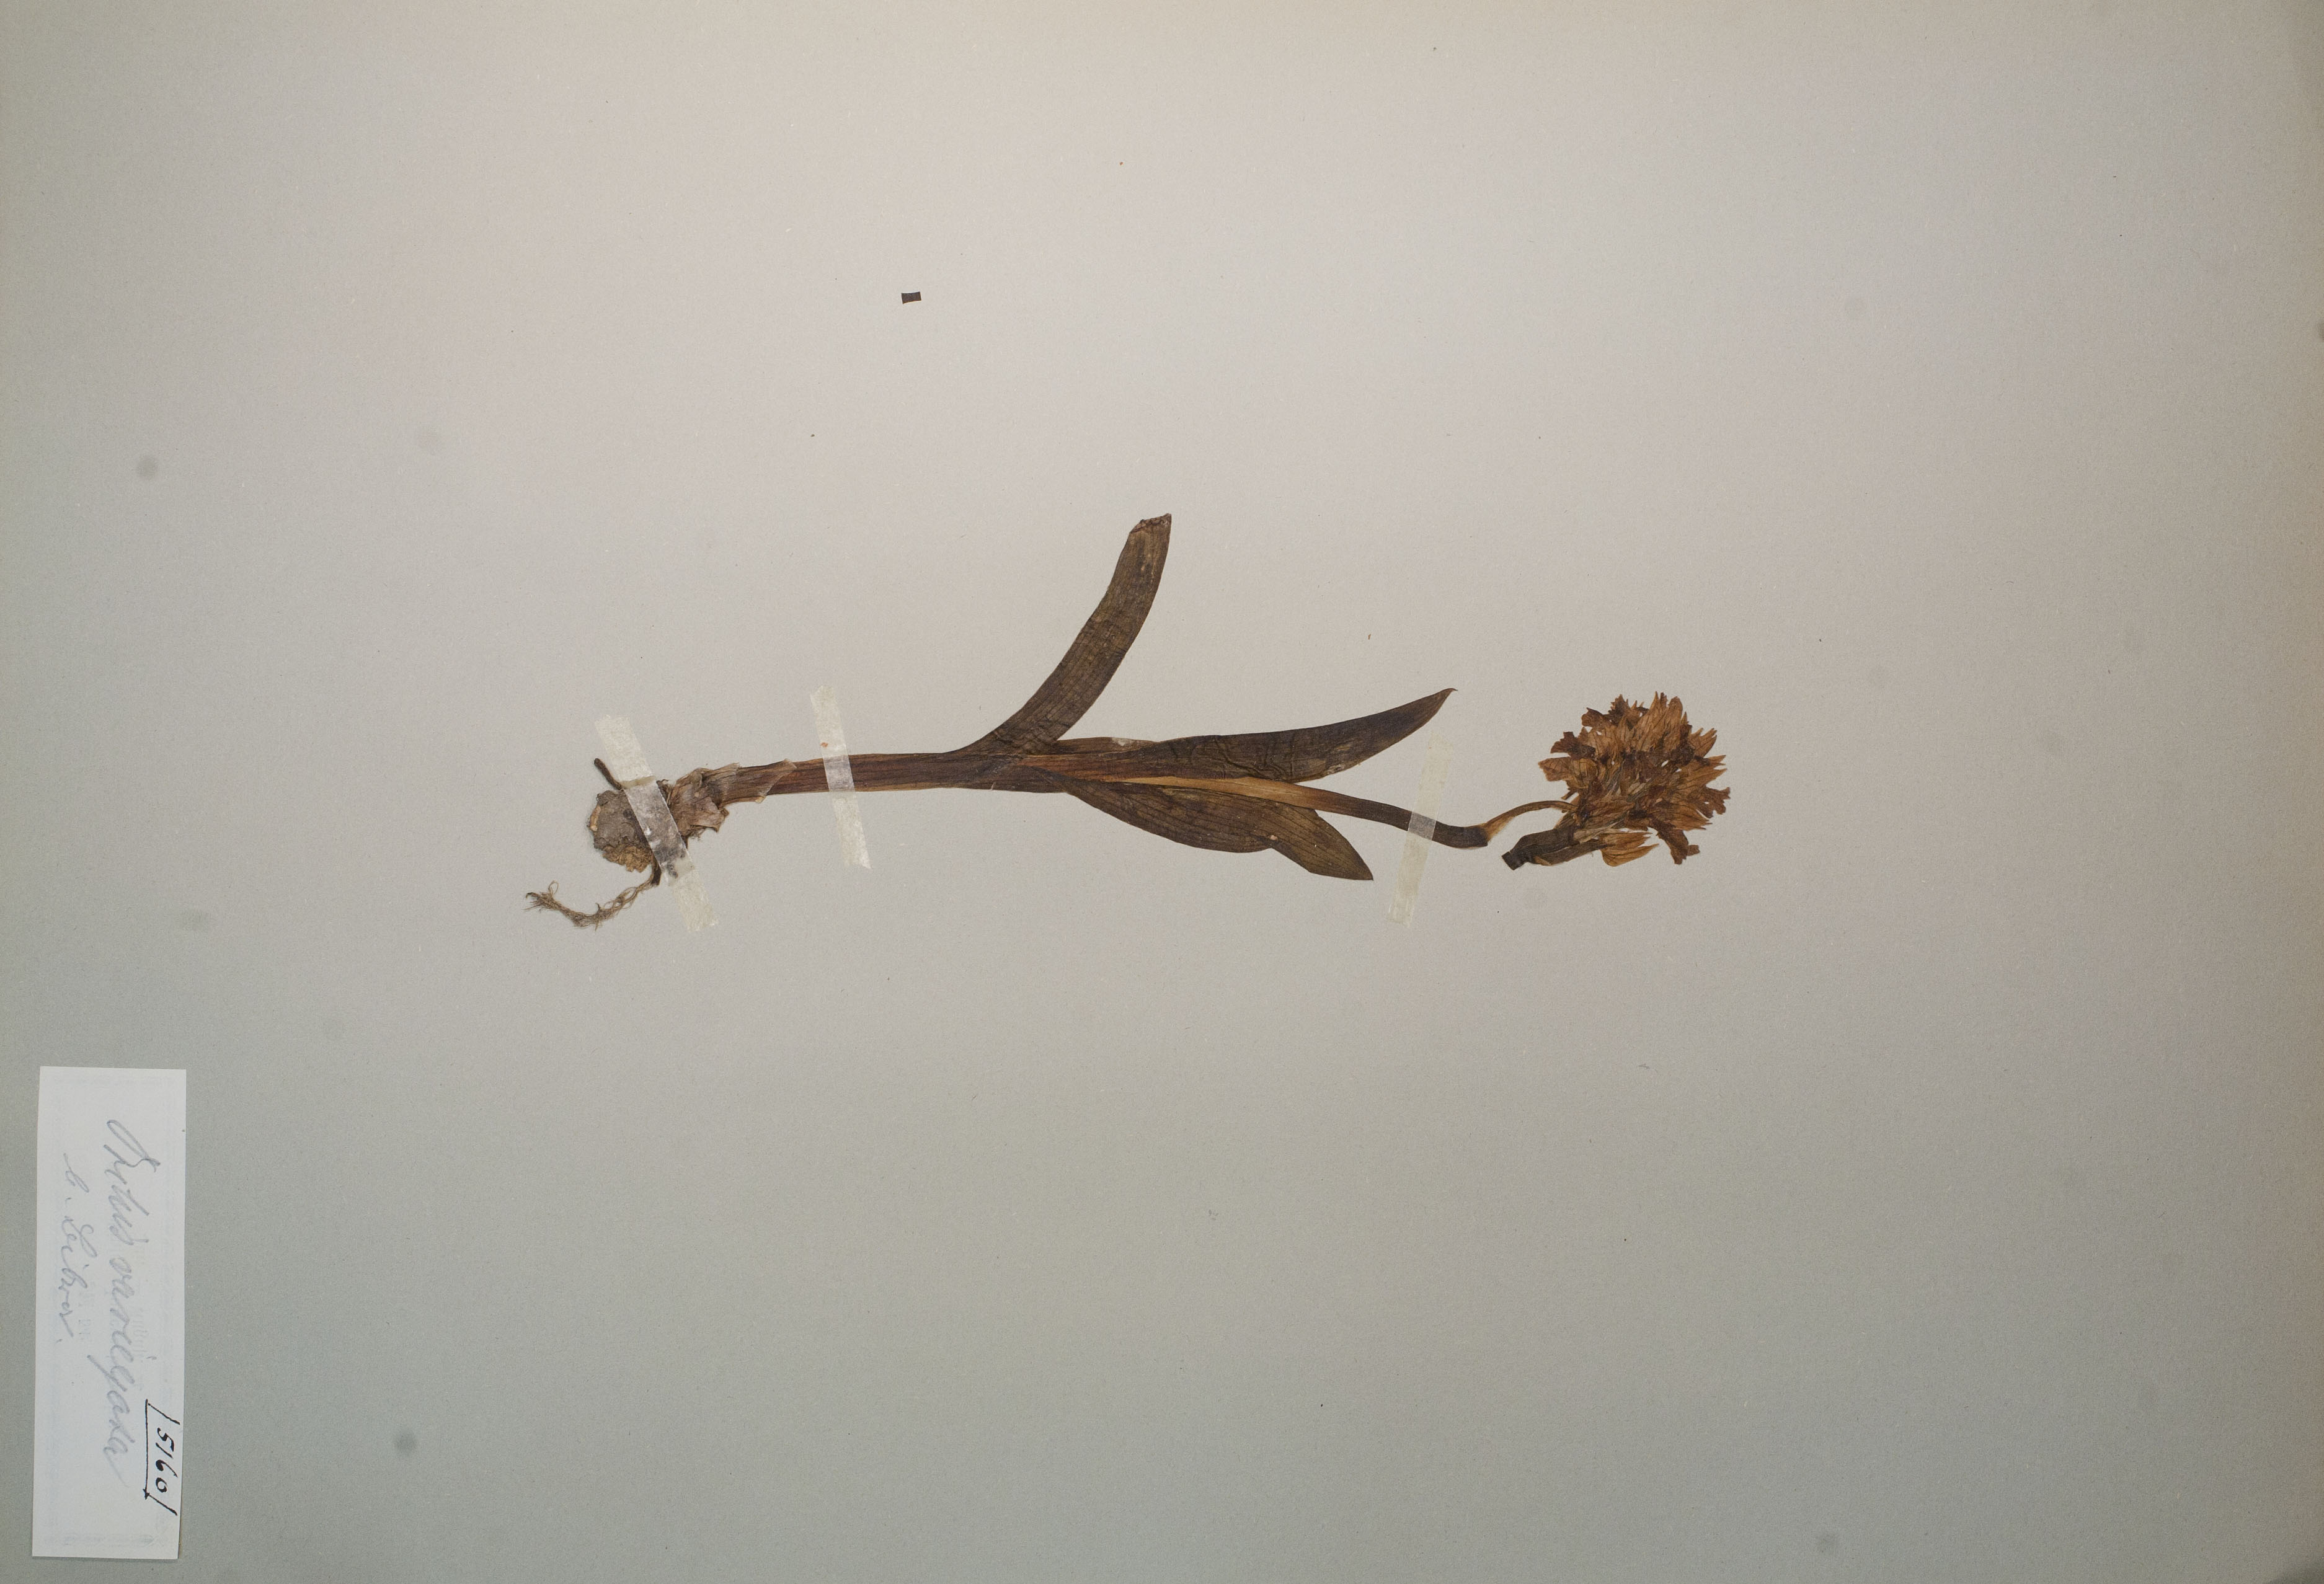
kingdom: Plantae
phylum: Tracheophyta
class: Liliopsida
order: Asparagales
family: Orchidaceae
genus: Neotinea
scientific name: Neotinea tridentata
